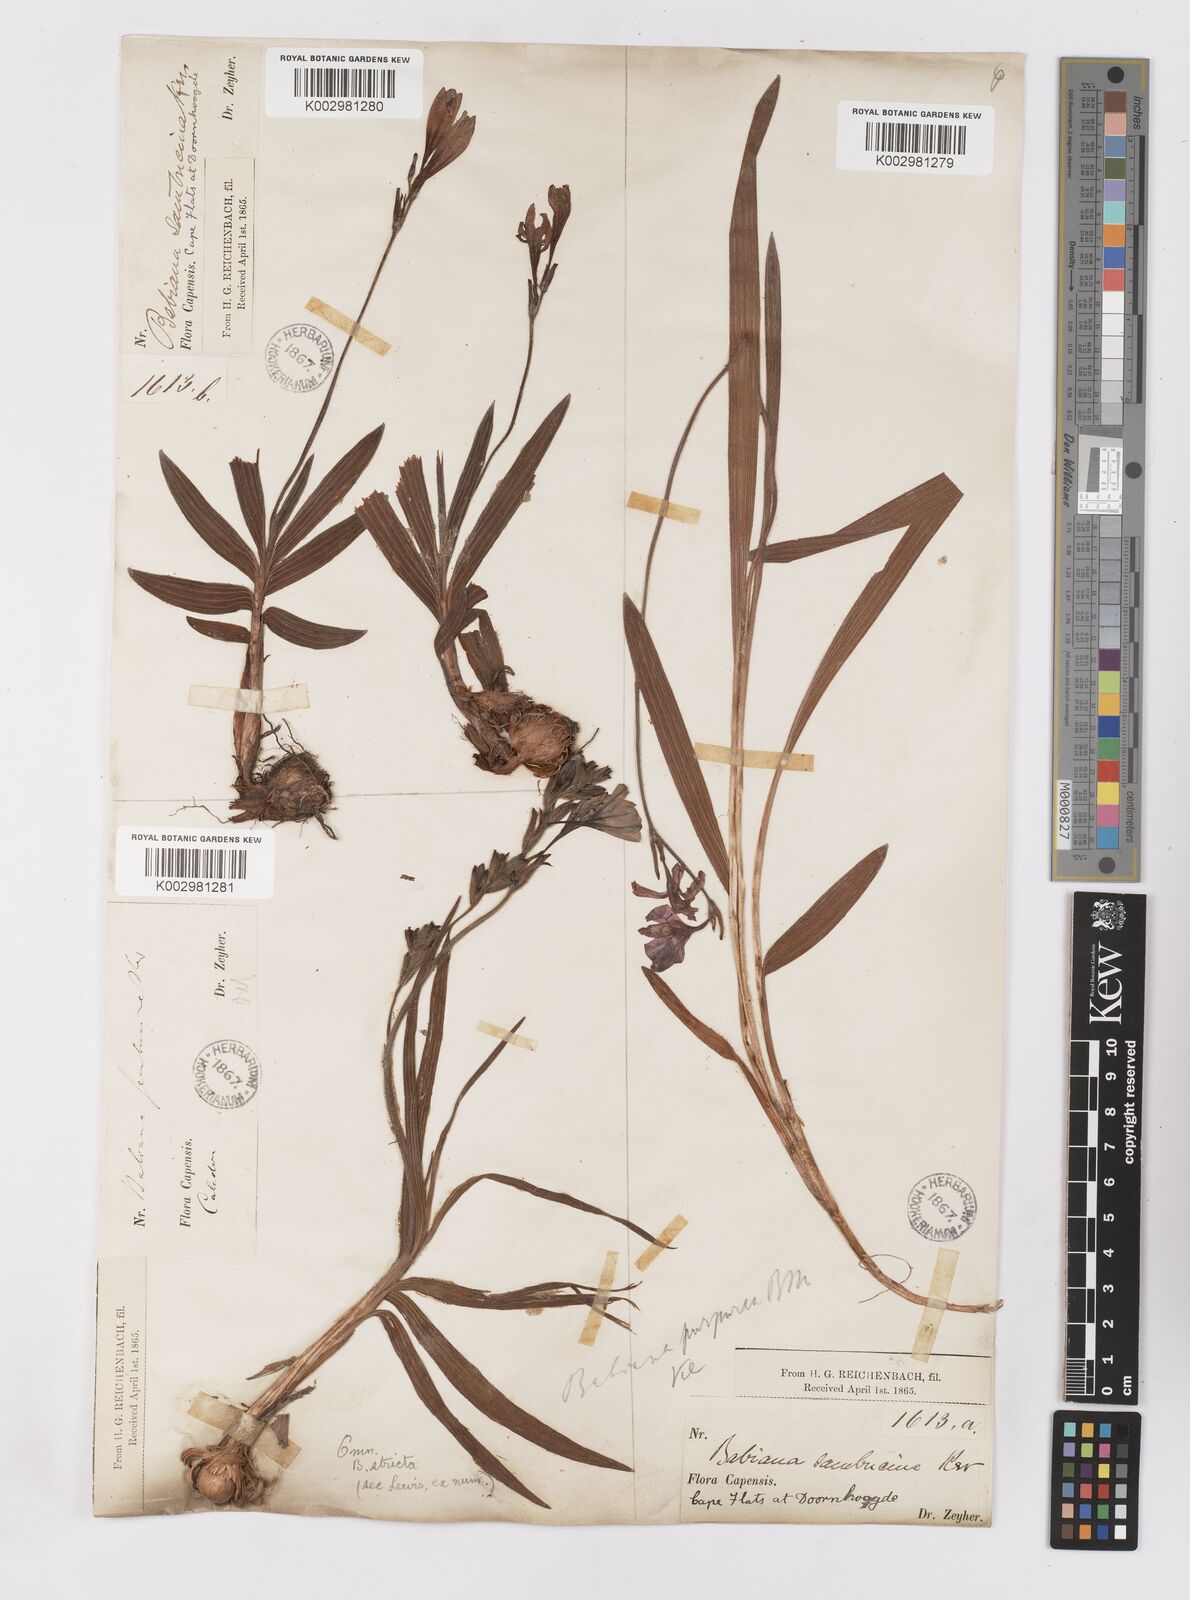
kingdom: Plantae
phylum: Tracheophyta
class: Liliopsida
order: Asparagales
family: Iridaceae
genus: Babiana
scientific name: Babiana regia
